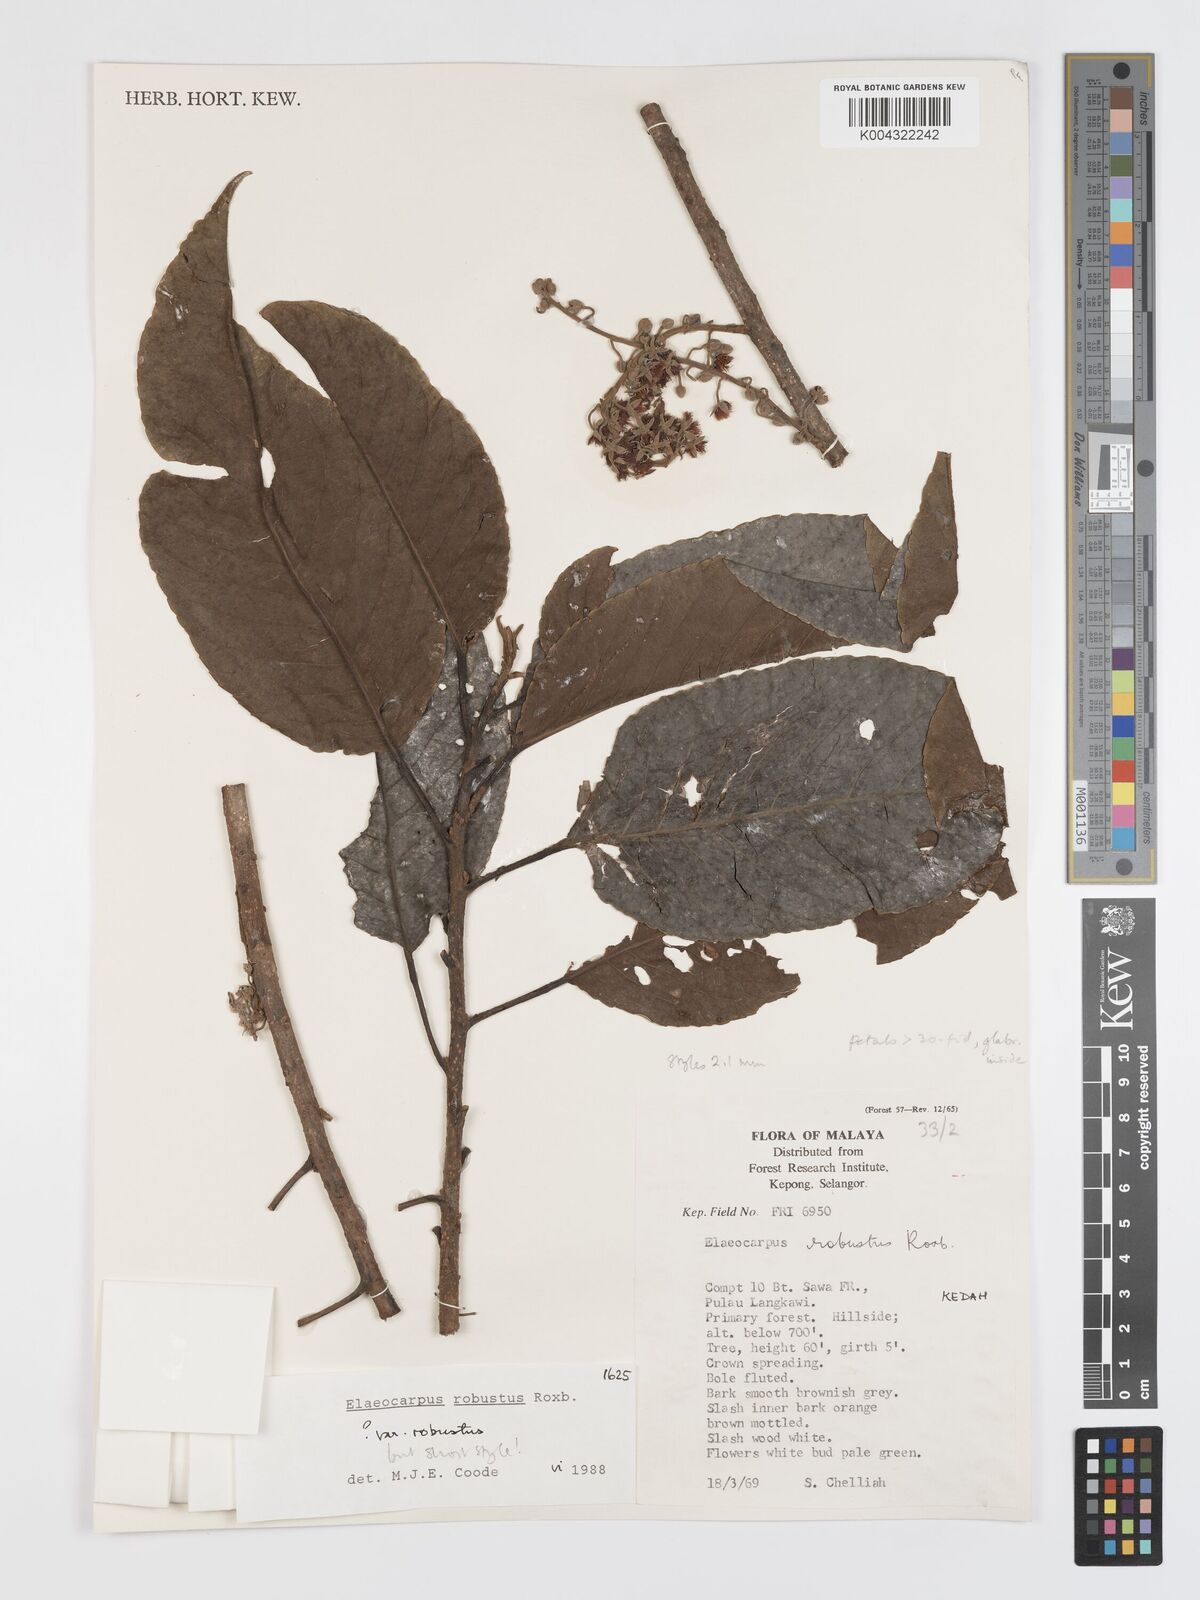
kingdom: Plantae
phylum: Tracheophyta
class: Magnoliopsida
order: Oxalidales
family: Elaeocarpaceae
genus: Elaeocarpus
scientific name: Elaeocarpus robustus
